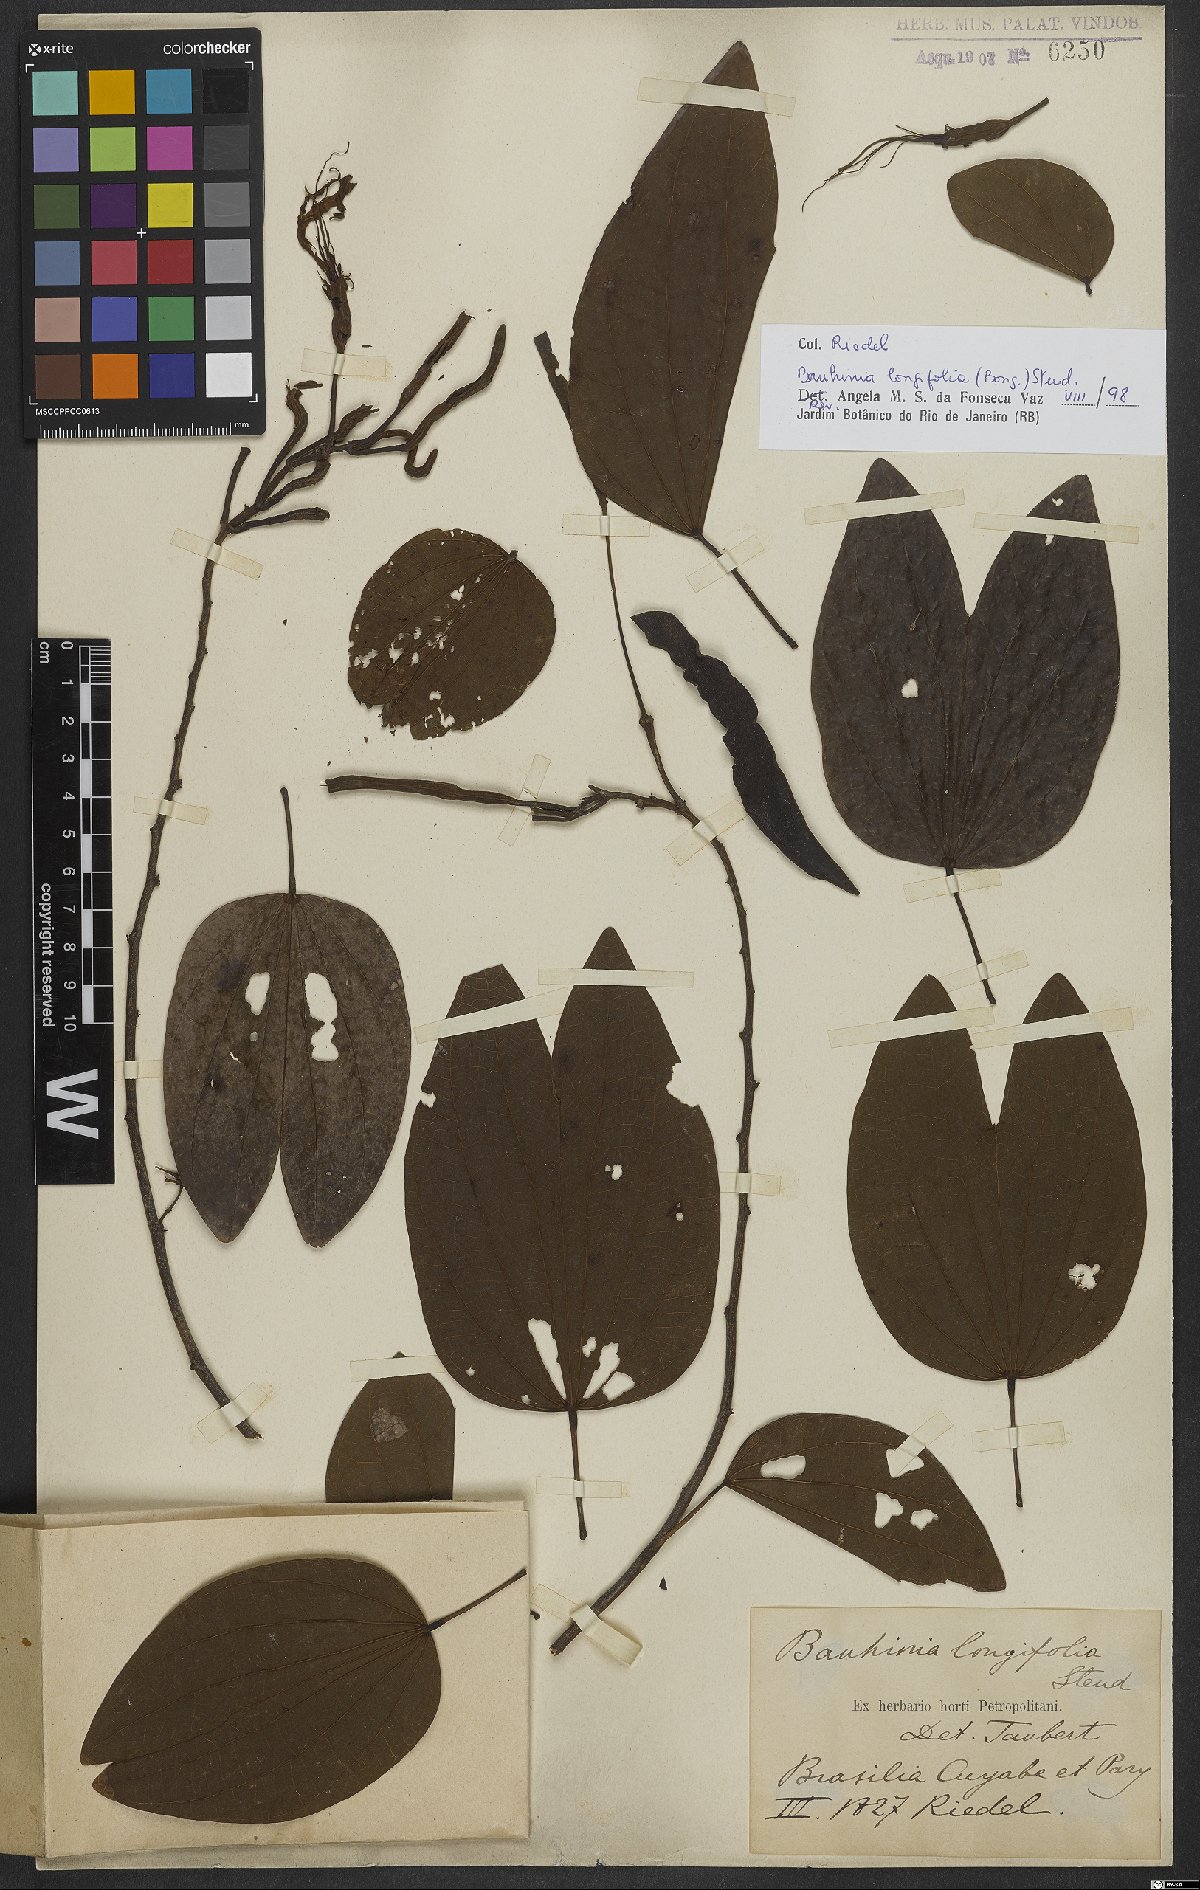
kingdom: Plantae
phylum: Tracheophyta
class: Magnoliopsida
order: Fabales
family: Fabaceae
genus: Bauhinia
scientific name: Bauhinia longifolia
